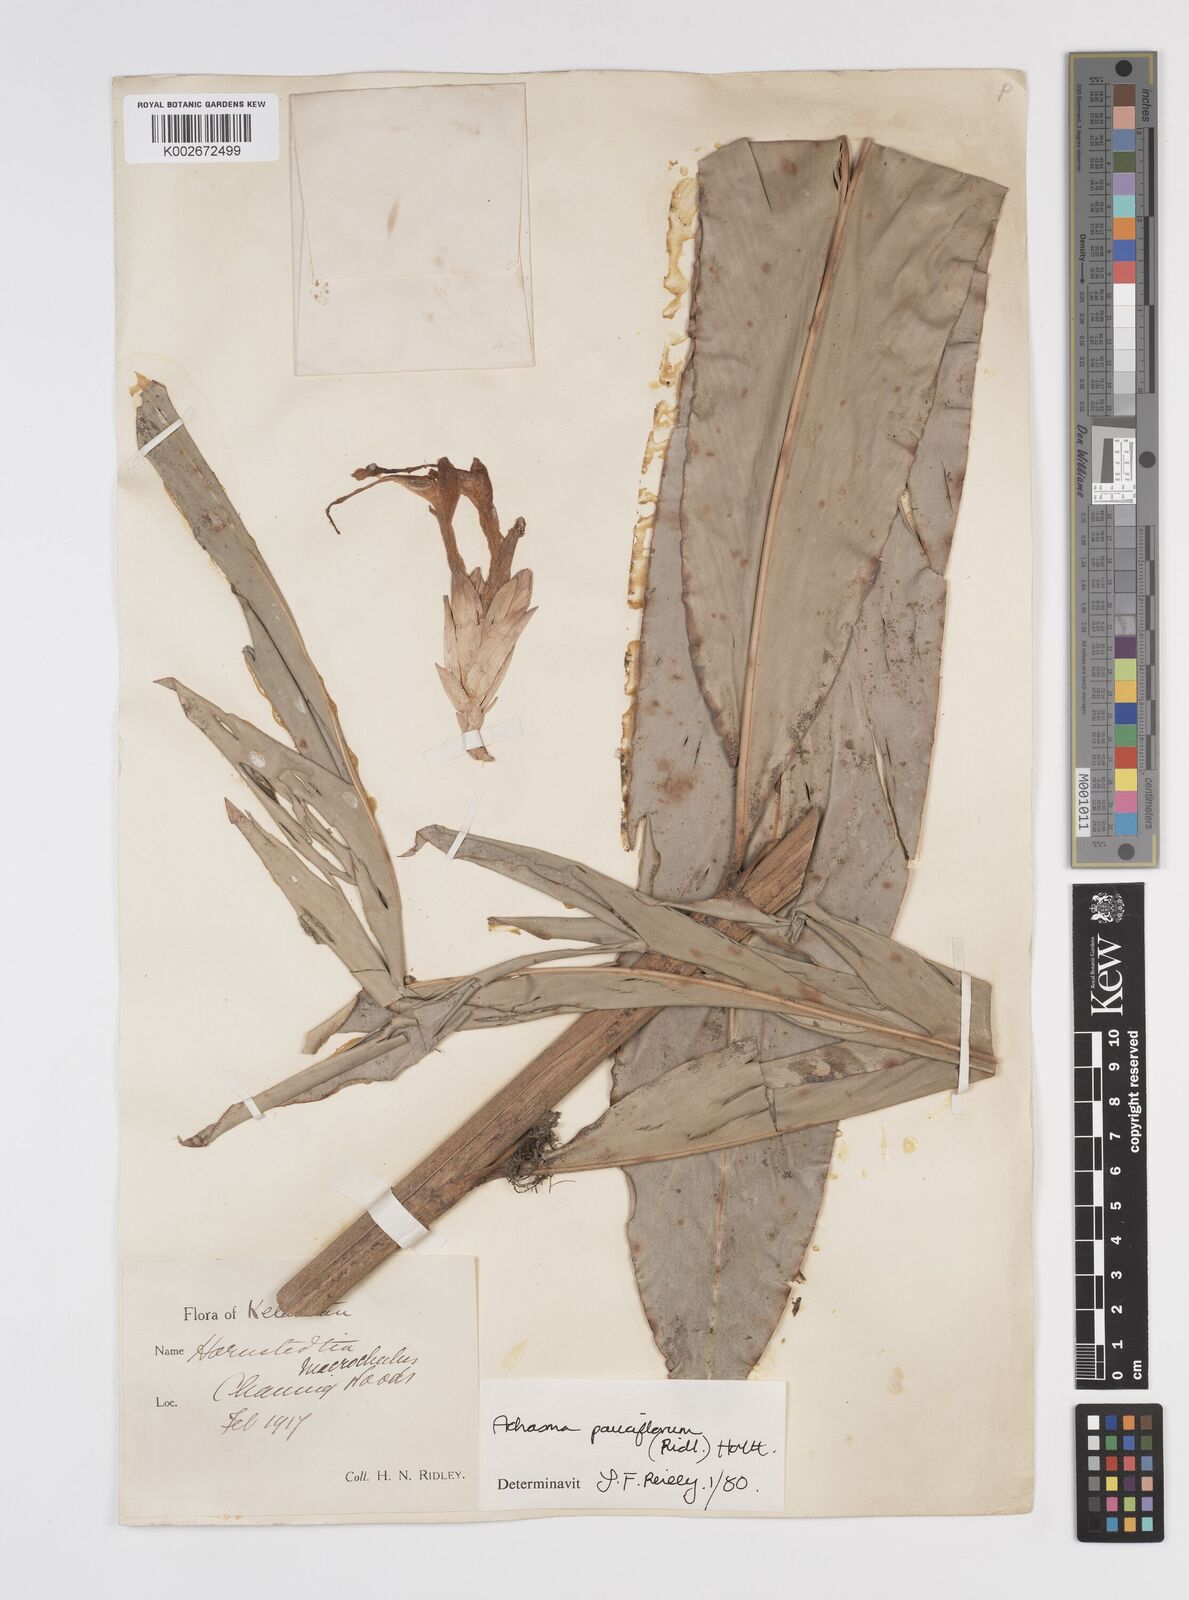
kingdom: Plantae
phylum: Tracheophyta
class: Liliopsida
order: Zingiberales
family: Zingiberaceae
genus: Etlingera
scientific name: Etlingera pauciflora
